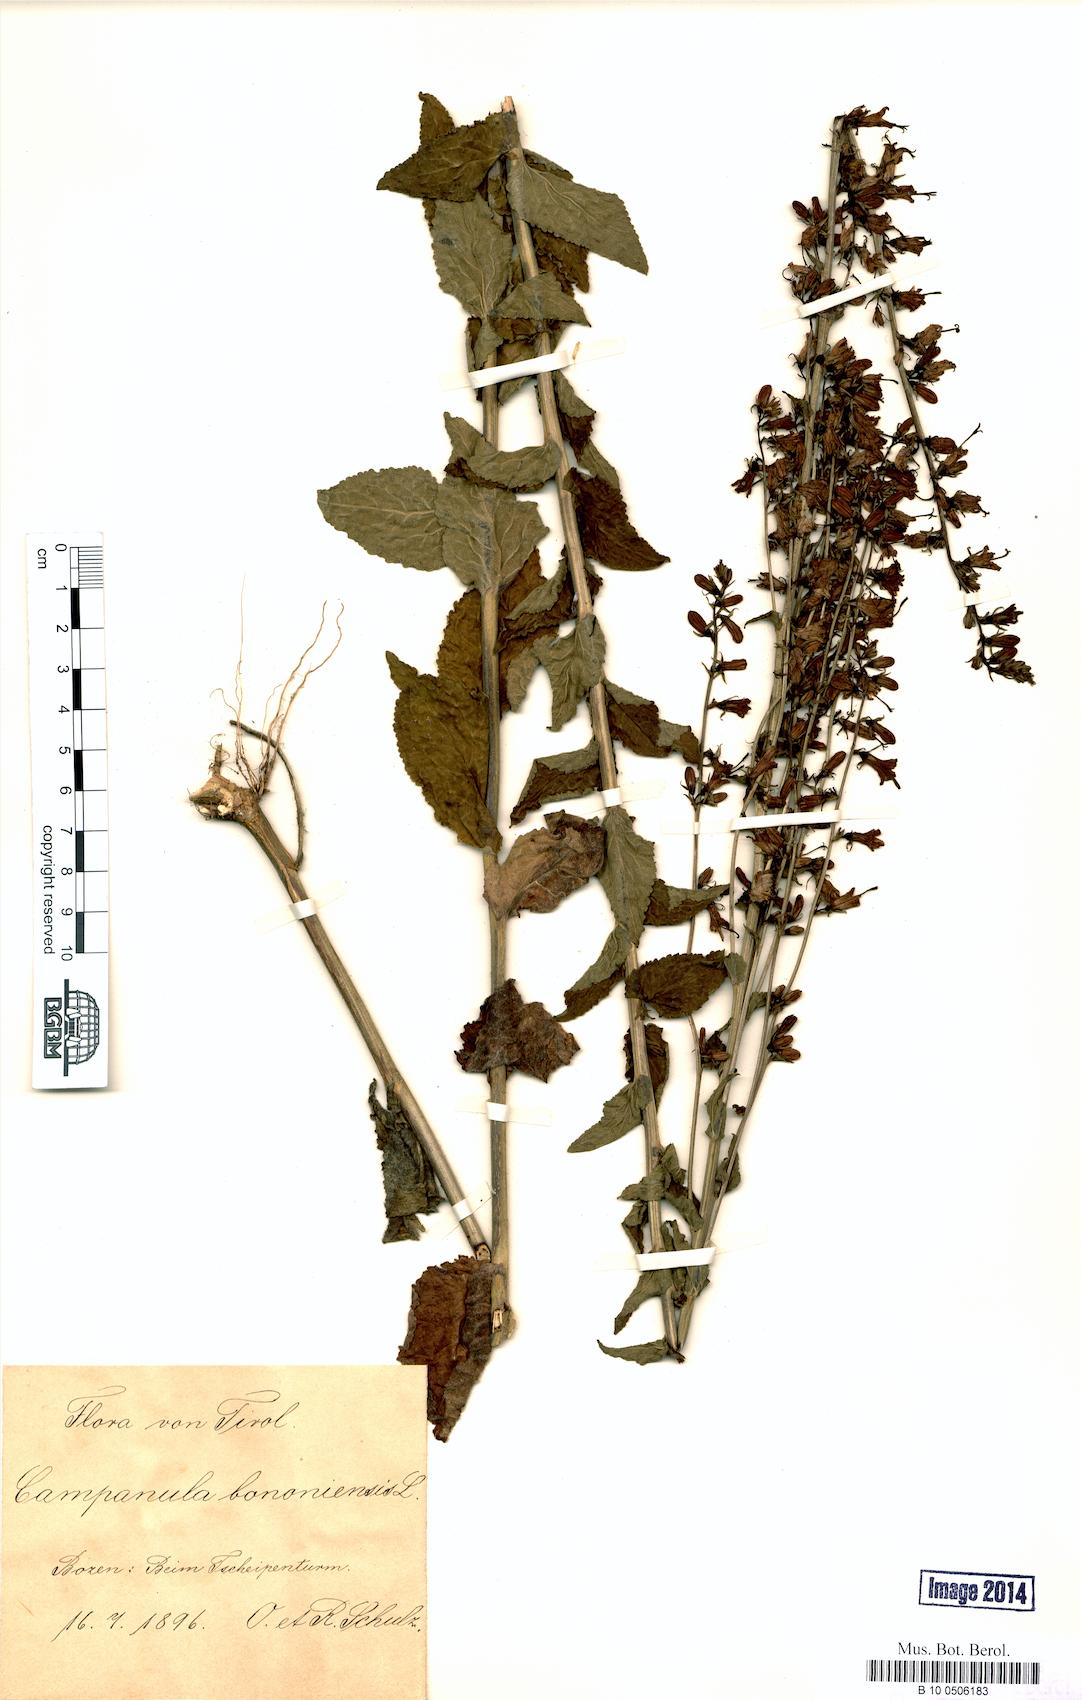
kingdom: Plantae
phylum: Tracheophyta
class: Magnoliopsida
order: Asterales
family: Campanulaceae
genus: Campanula
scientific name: Campanula bononiensis
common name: Pale bellflower
